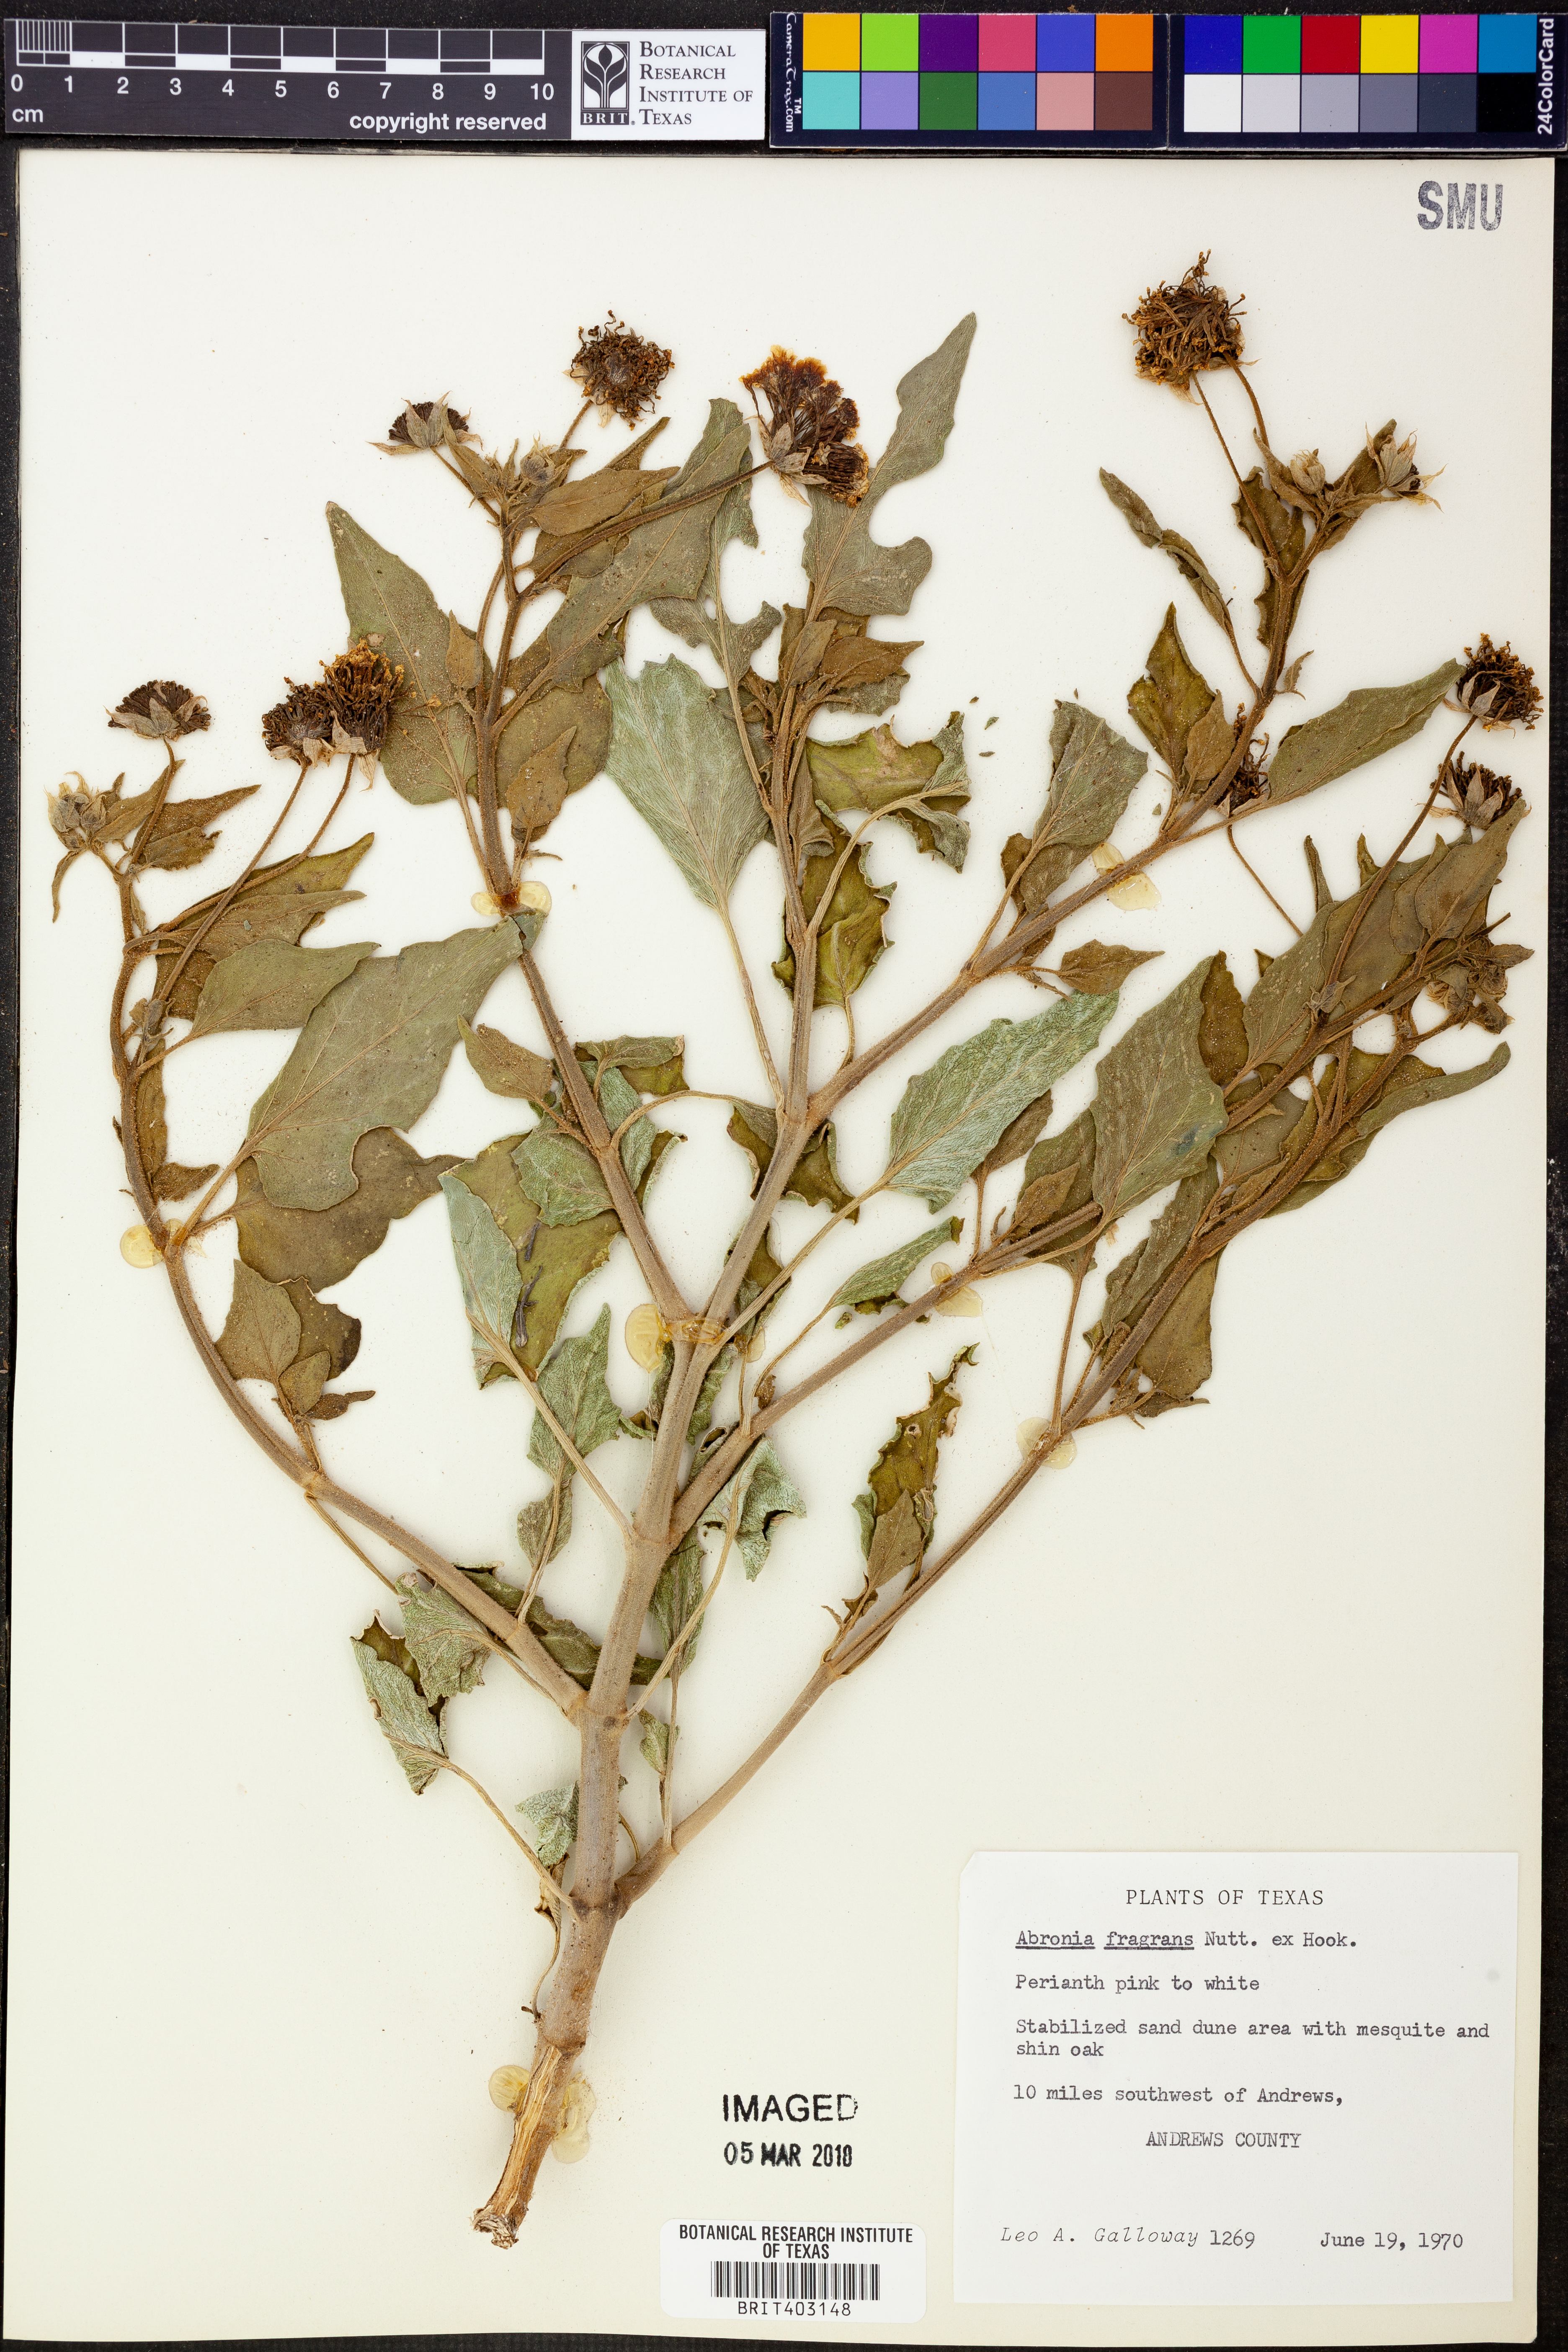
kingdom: Plantae
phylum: Tracheophyta
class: Magnoliopsida
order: Caryophyllales
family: Nyctaginaceae
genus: Abronia
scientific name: Abronia fragrans
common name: Fragrant sand-verbena
